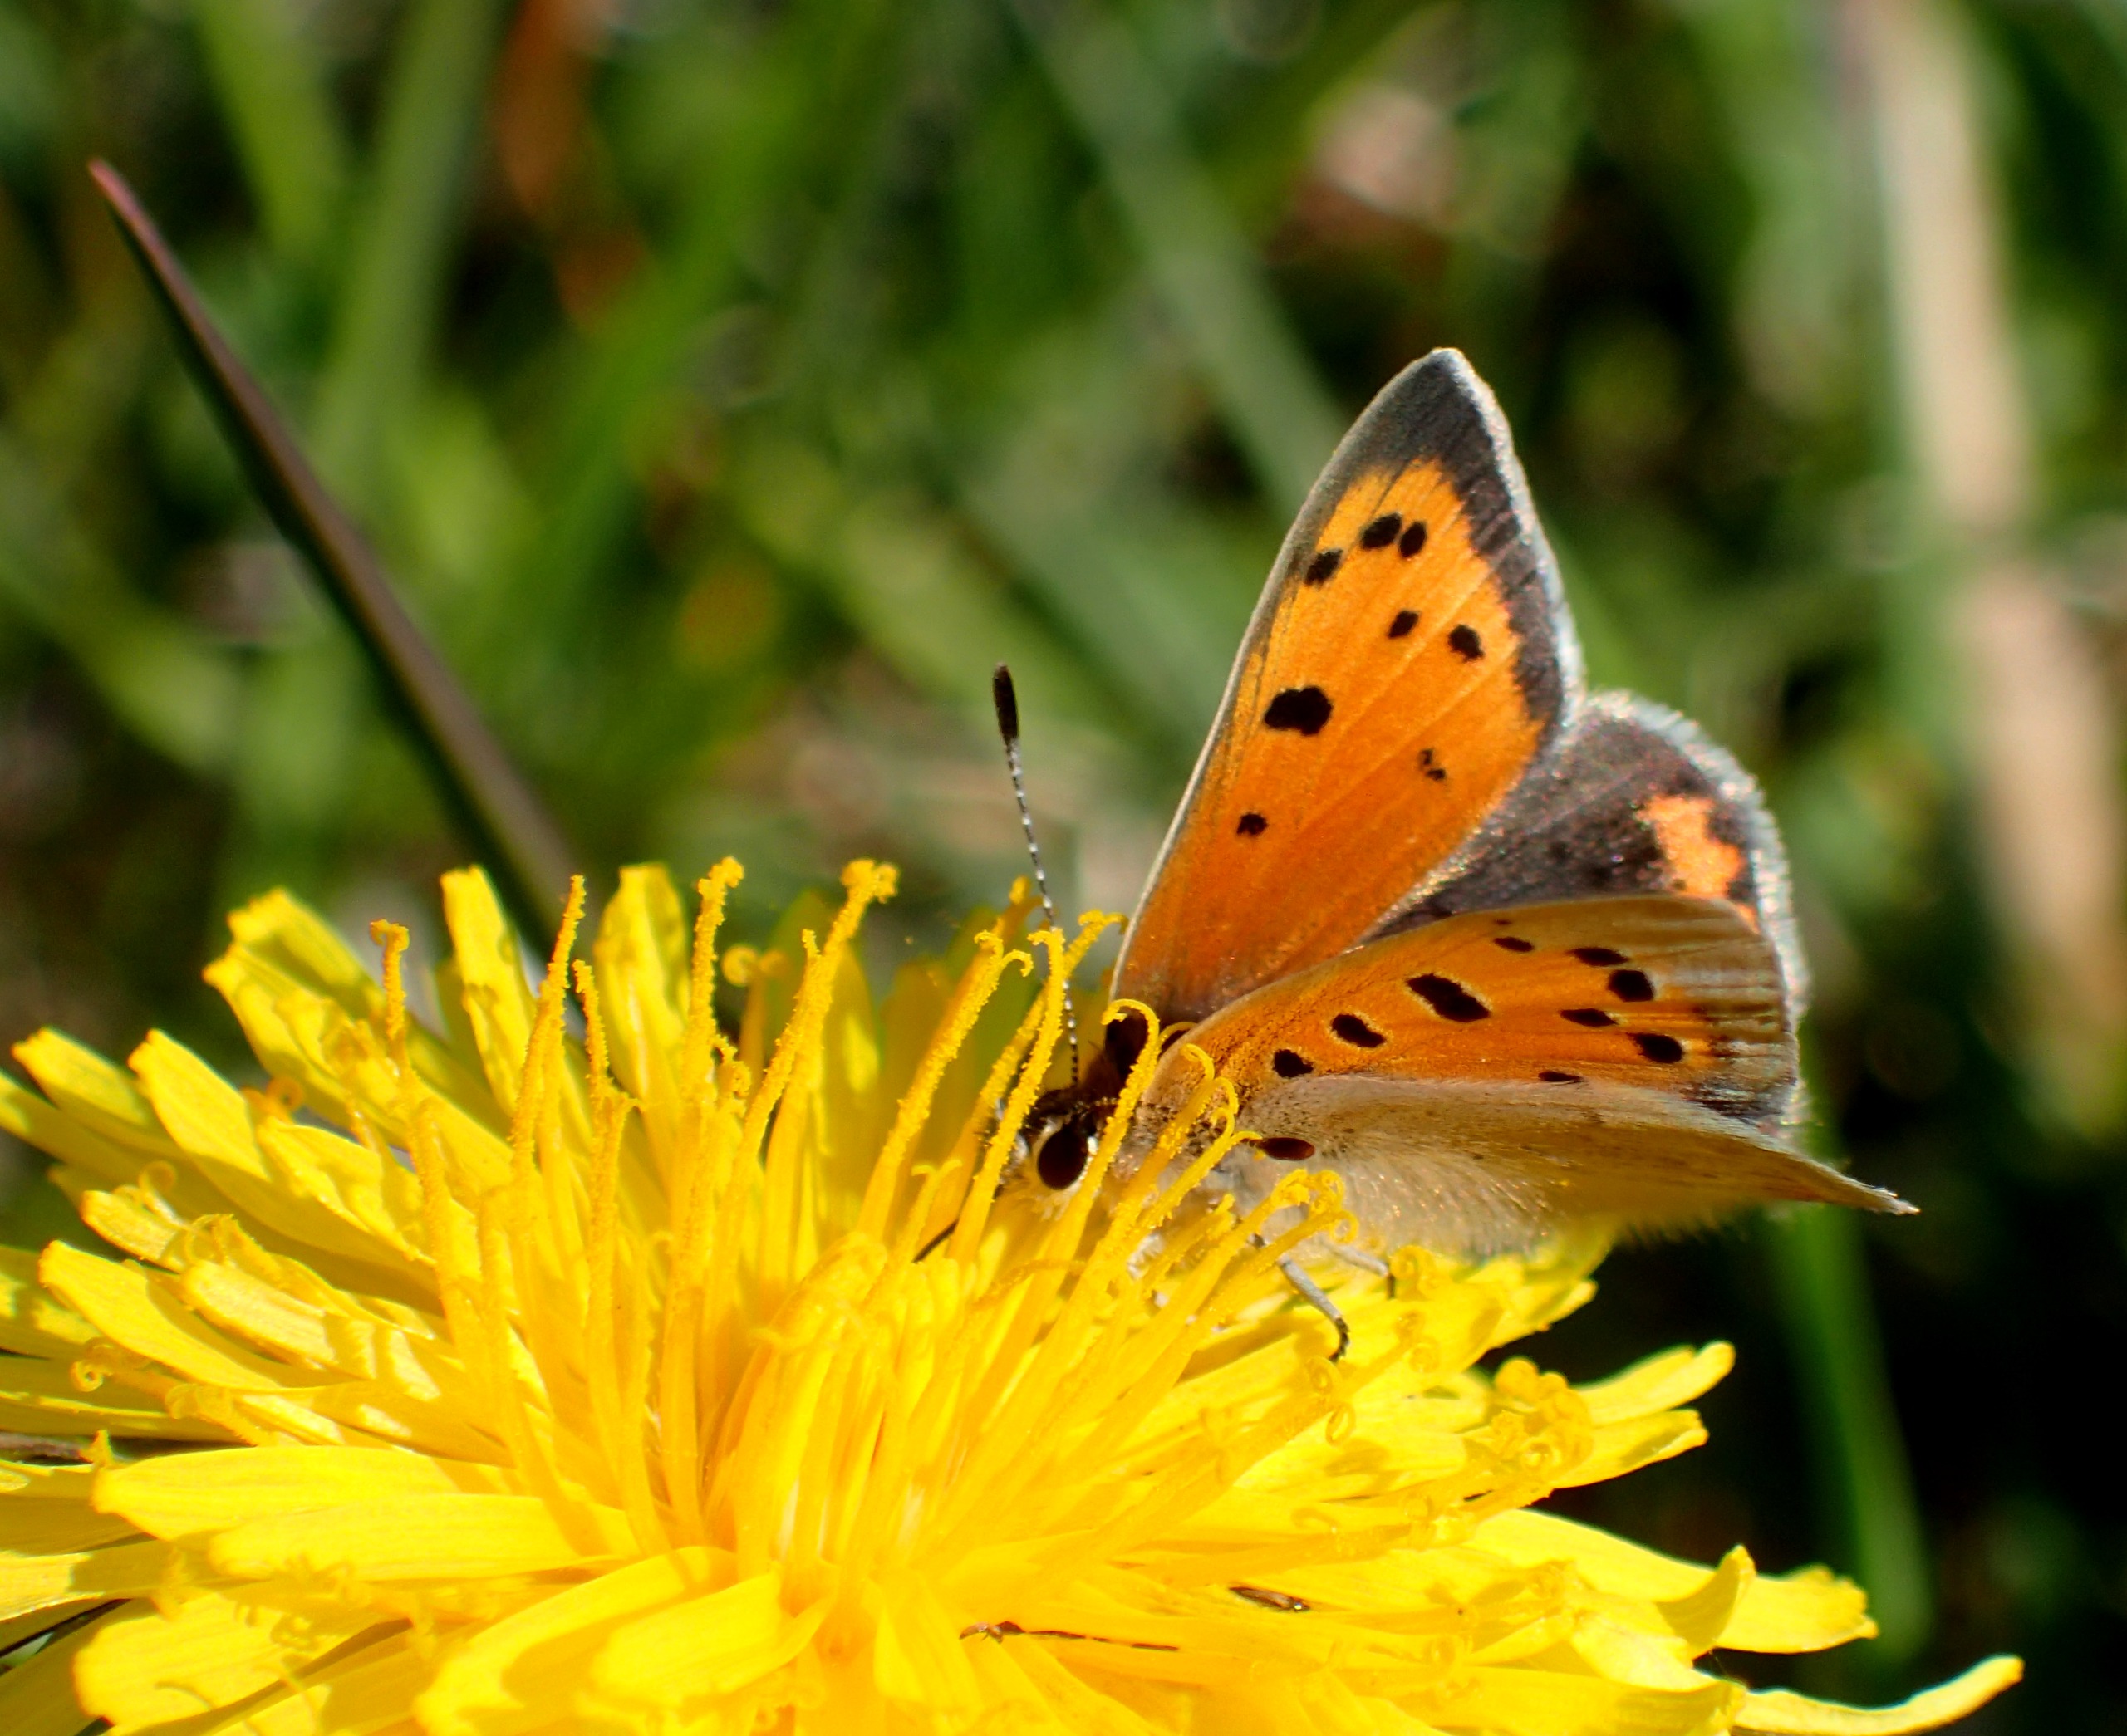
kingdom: Animalia
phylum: Arthropoda
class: Insecta
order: Lepidoptera
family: Lycaenidae
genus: Lycaena
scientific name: Lycaena phlaeas
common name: Lille ildfugl
